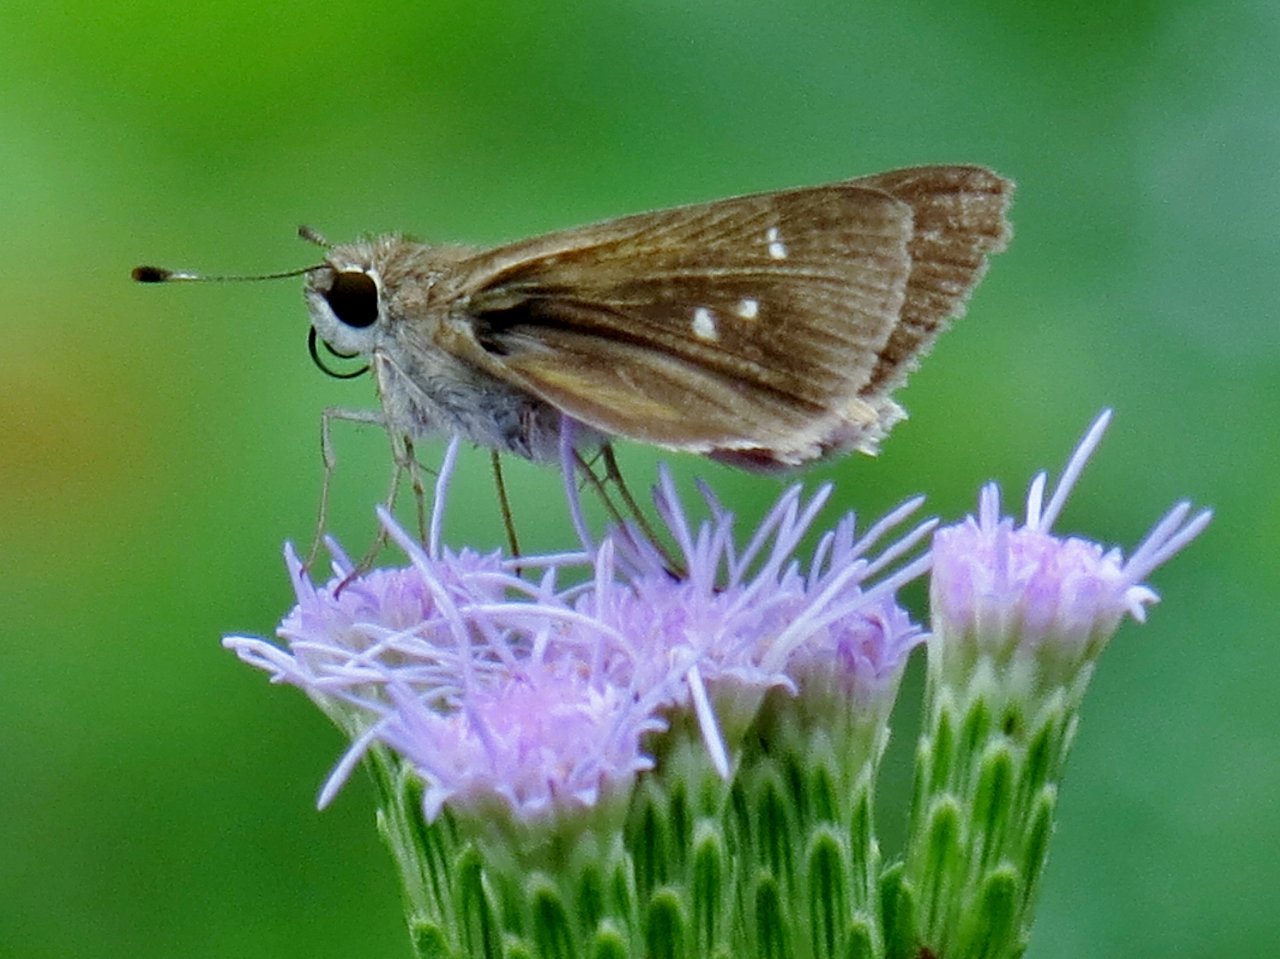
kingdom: Animalia
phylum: Arthropoda
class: Insecta
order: Lepidoptera
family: Hesperiidae
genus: Lerodea
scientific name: Lerodea eufala
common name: Eufala Skipper
